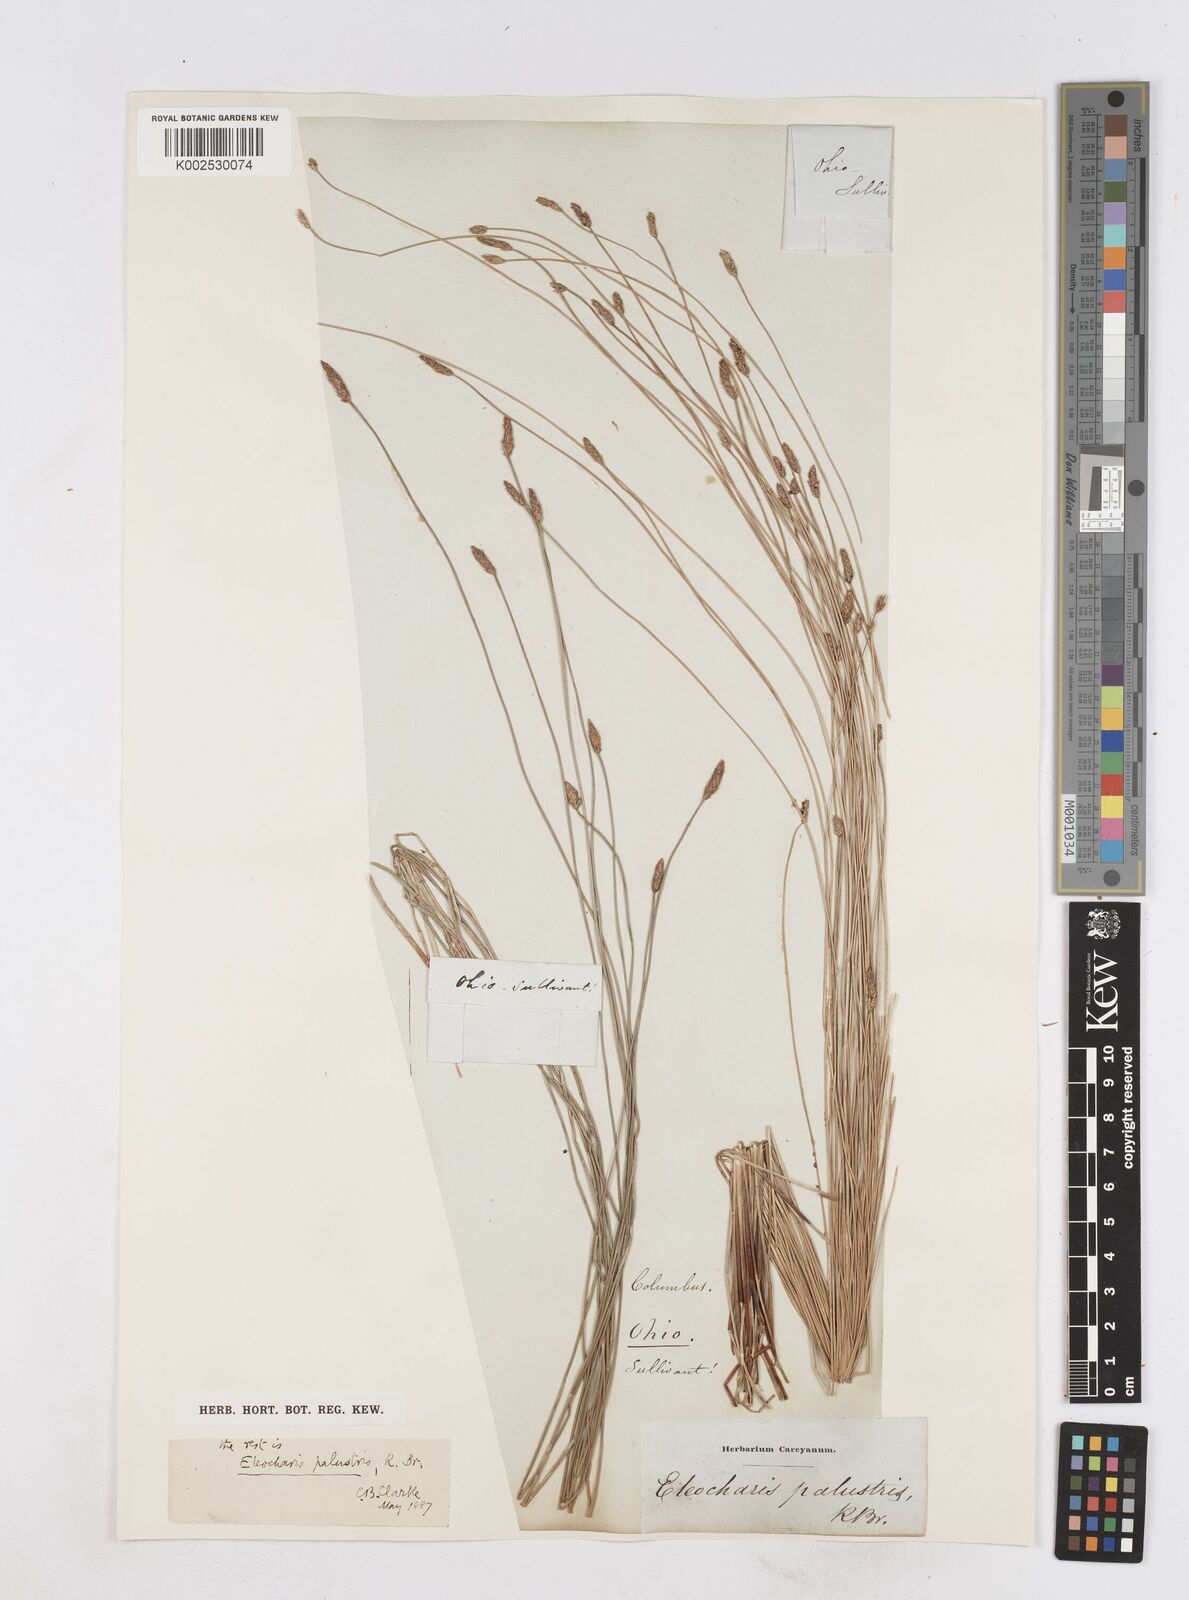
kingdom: Plantae
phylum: Tracheophyta
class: Liliopsida
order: Poales
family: Cyperaceae
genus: Eleocharis
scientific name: Eleocharis palustris
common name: Common spike-rush
